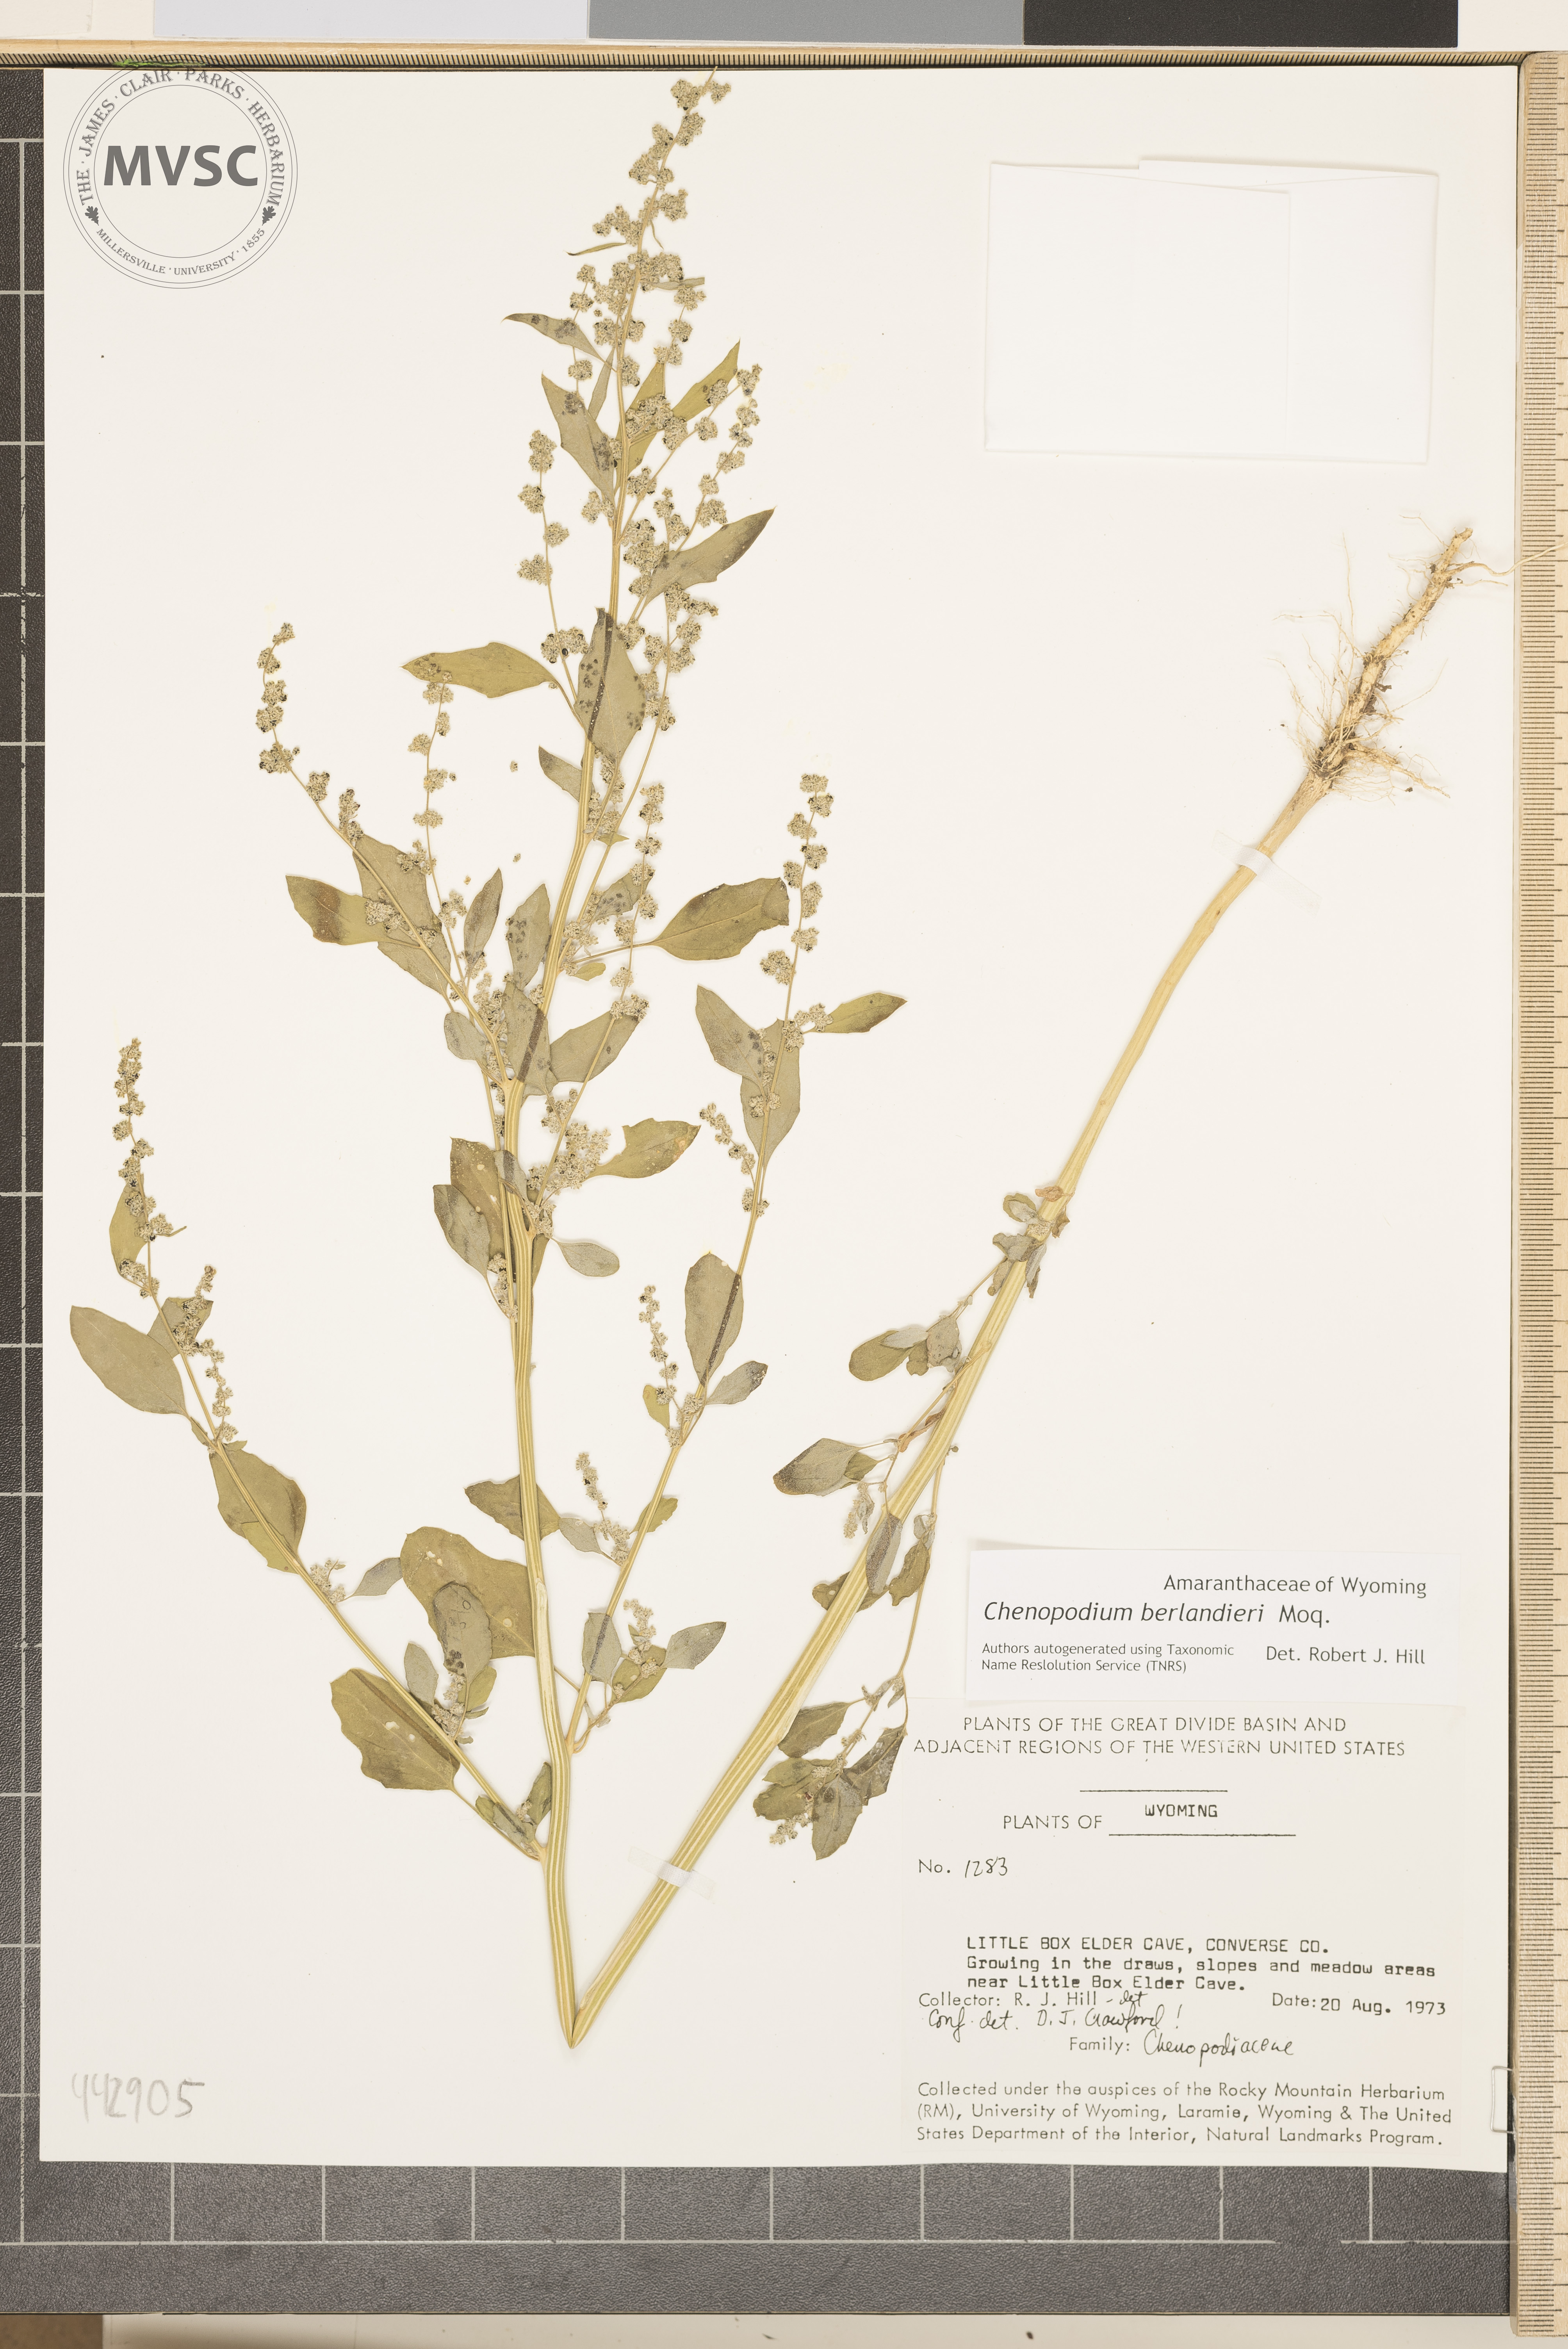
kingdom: Plantae
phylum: Tracheophyta
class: Magnoliopsida
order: Caryophyllales
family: Amaranthaceae
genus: Chenopodium
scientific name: Chenopodium berlandieri
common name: Pit-seed goosefoot
